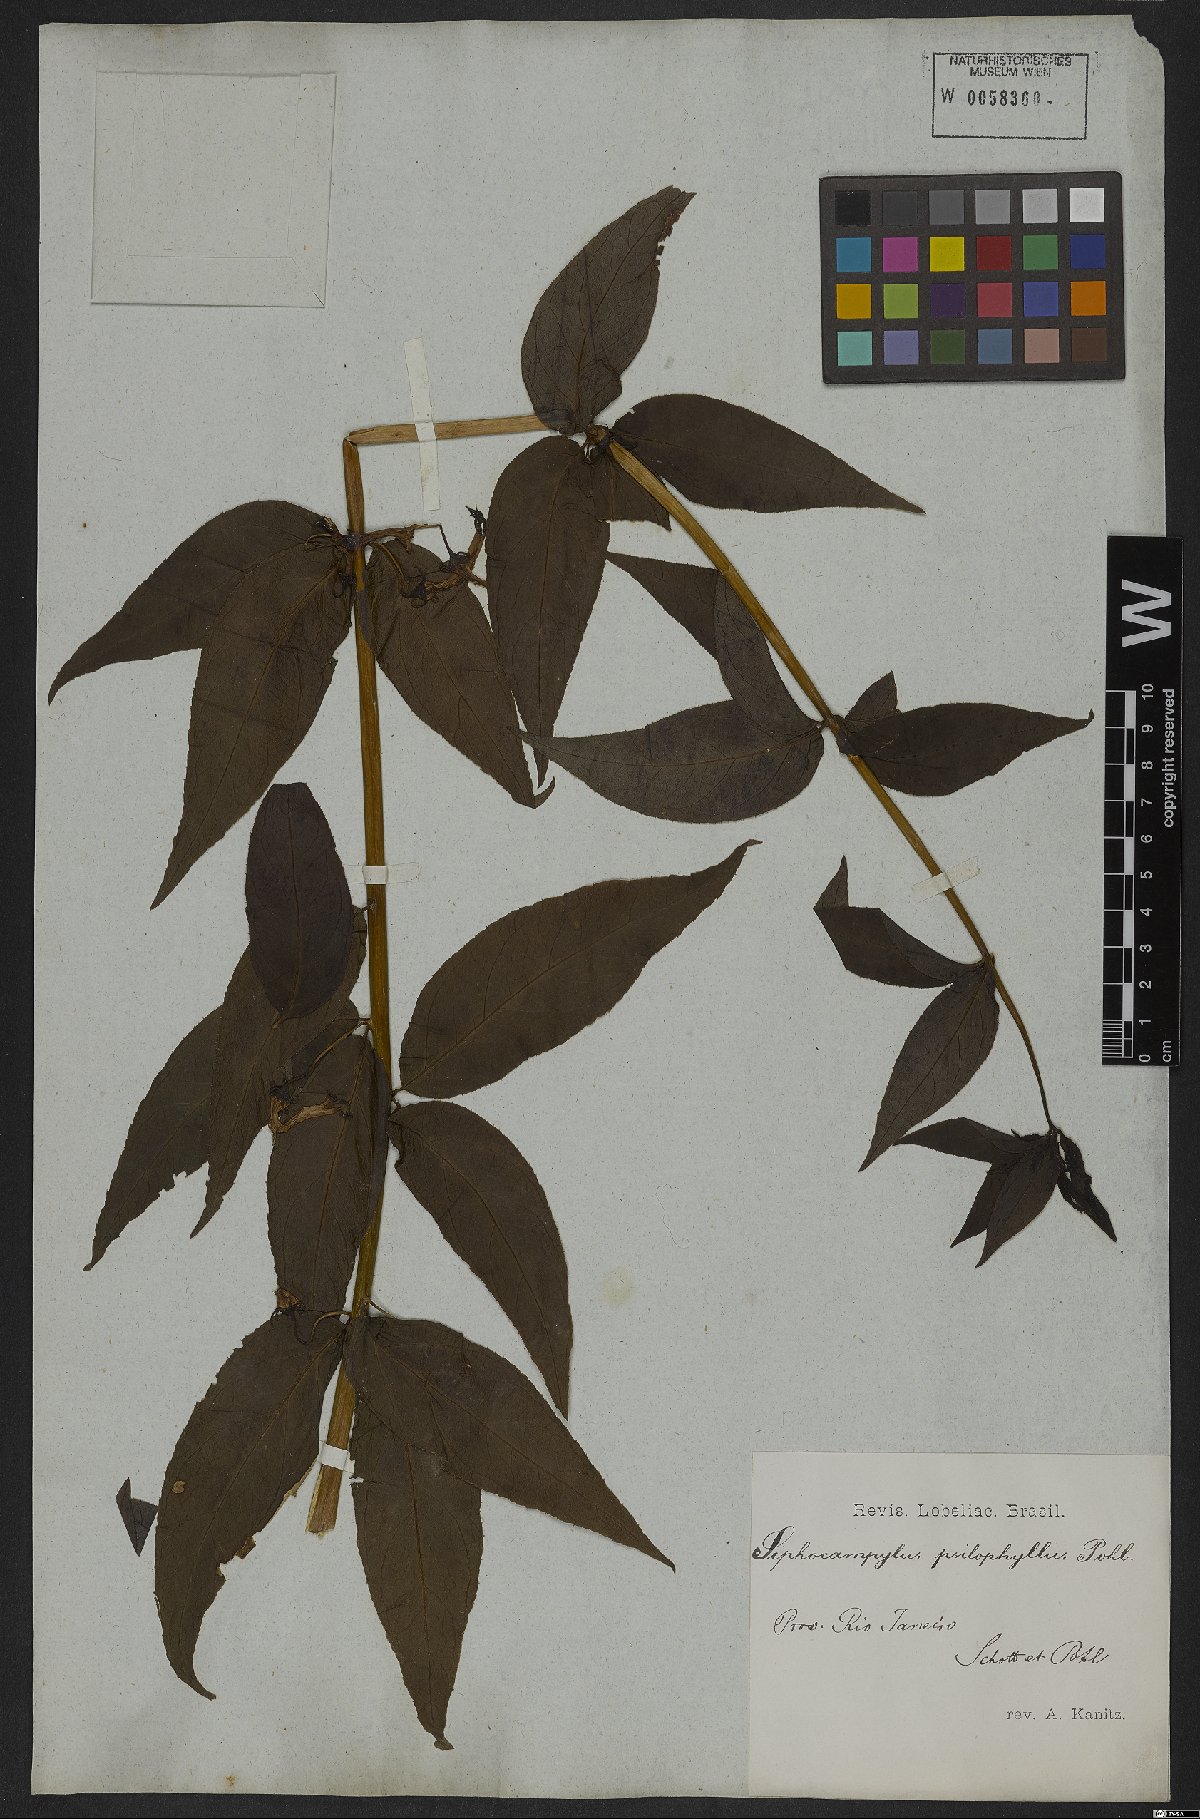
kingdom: Plantae
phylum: Tracheophyta
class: Magnoliopsida
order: Asterales
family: Campanulaceae
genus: Siphocampylus
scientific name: Siphocampylus psilophyllus
